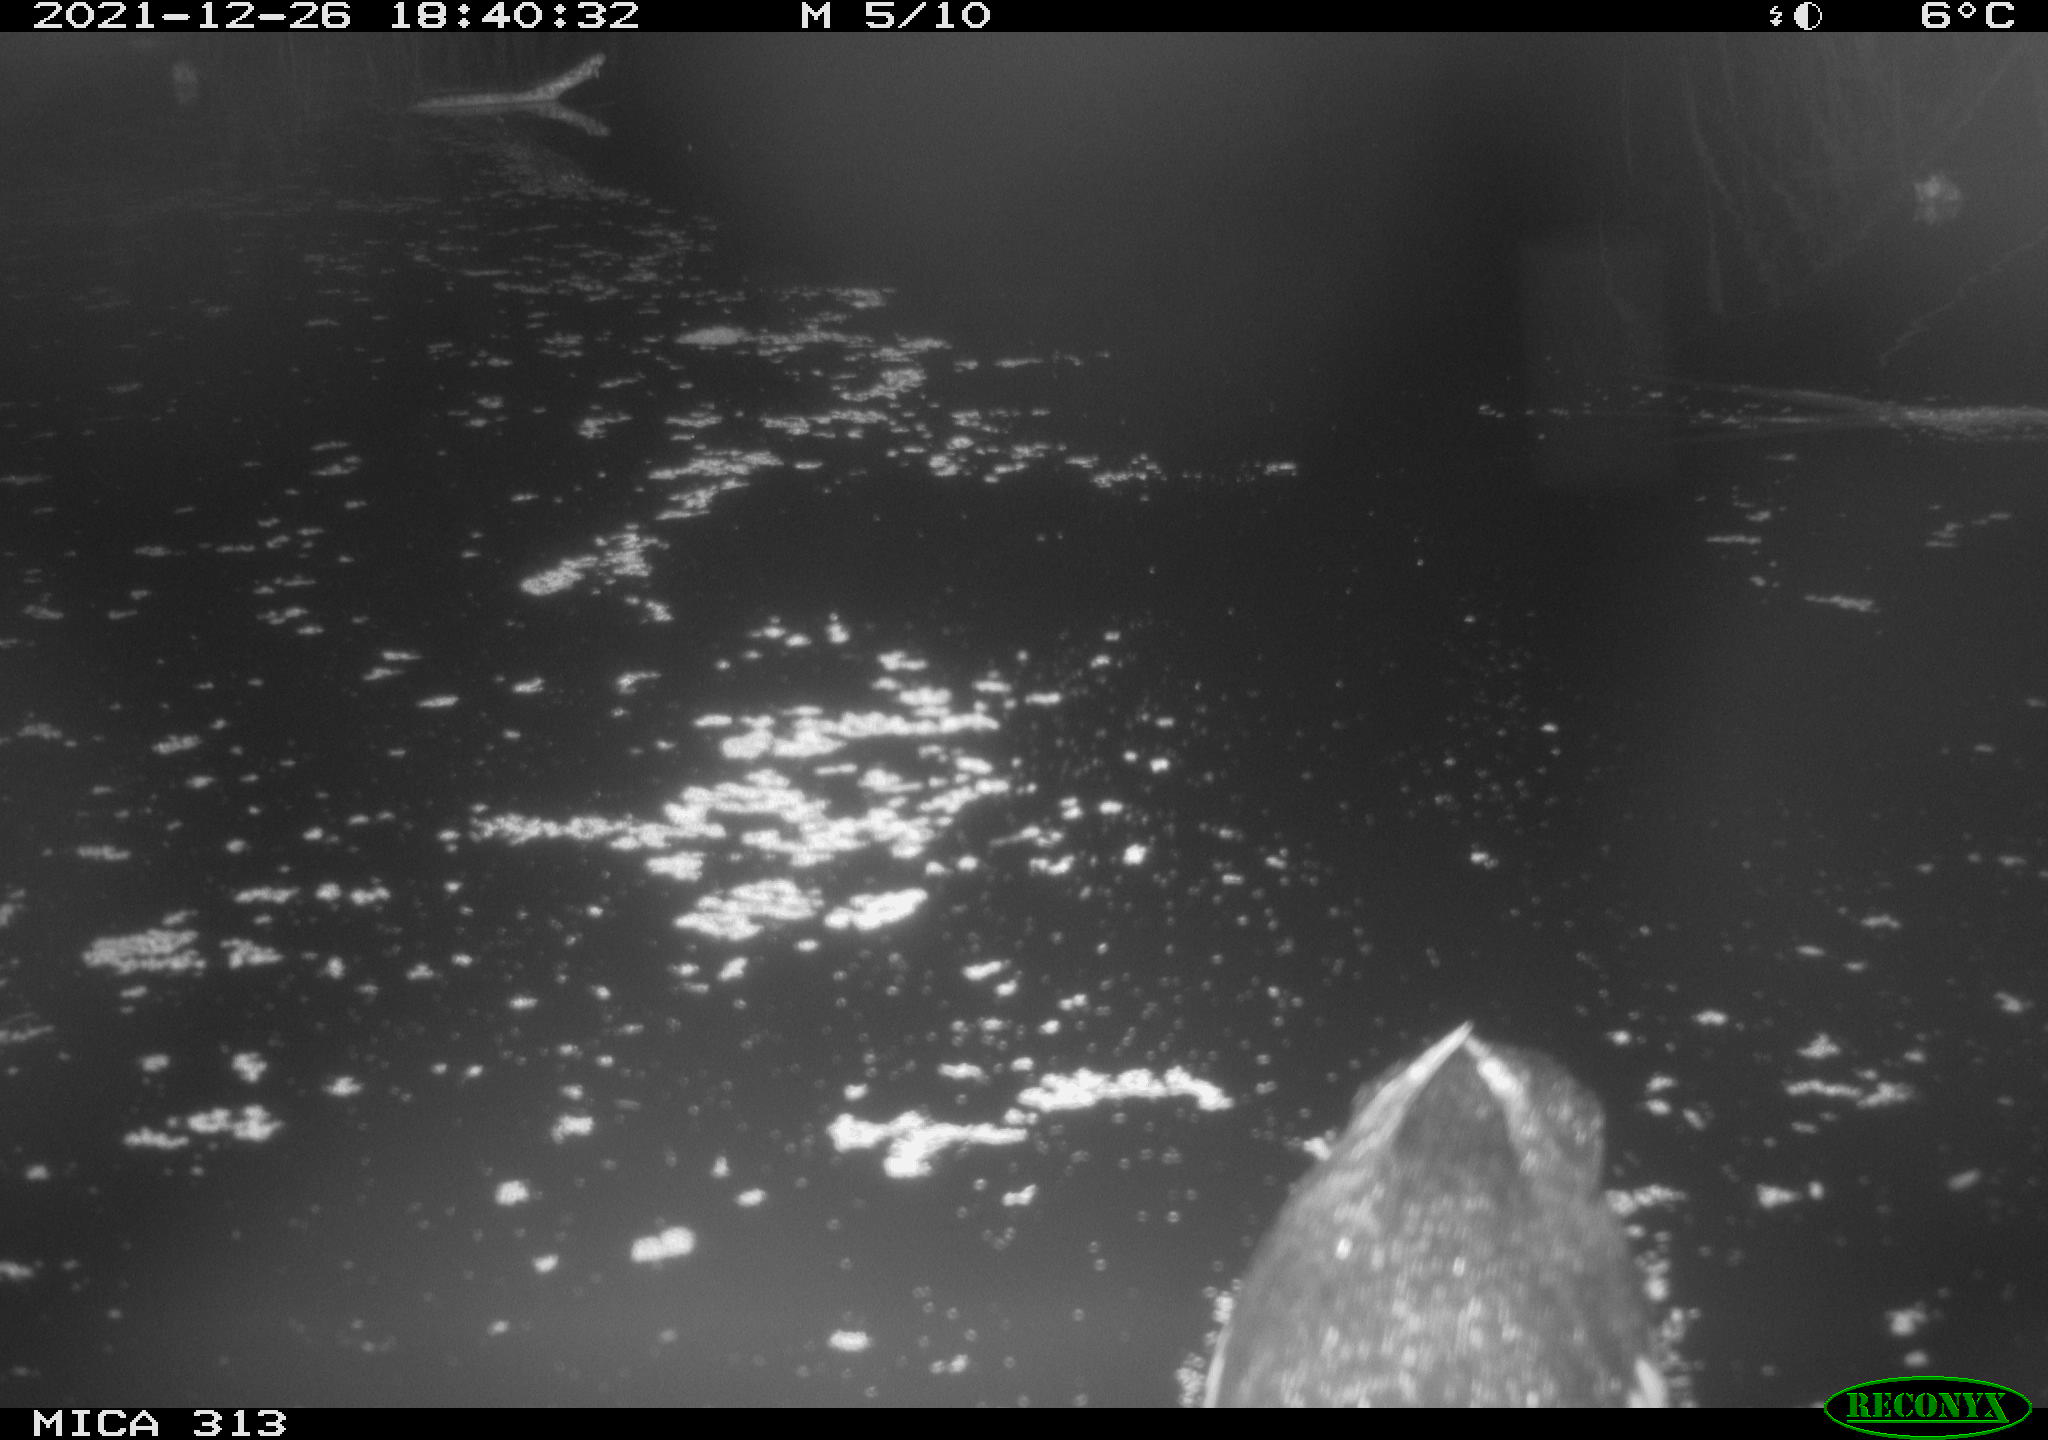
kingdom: Animalia
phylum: Chordata
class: Aves
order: Gruiformes
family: Rallidae
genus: Gallinula
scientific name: Gallinula chloropus
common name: Common moorhen
